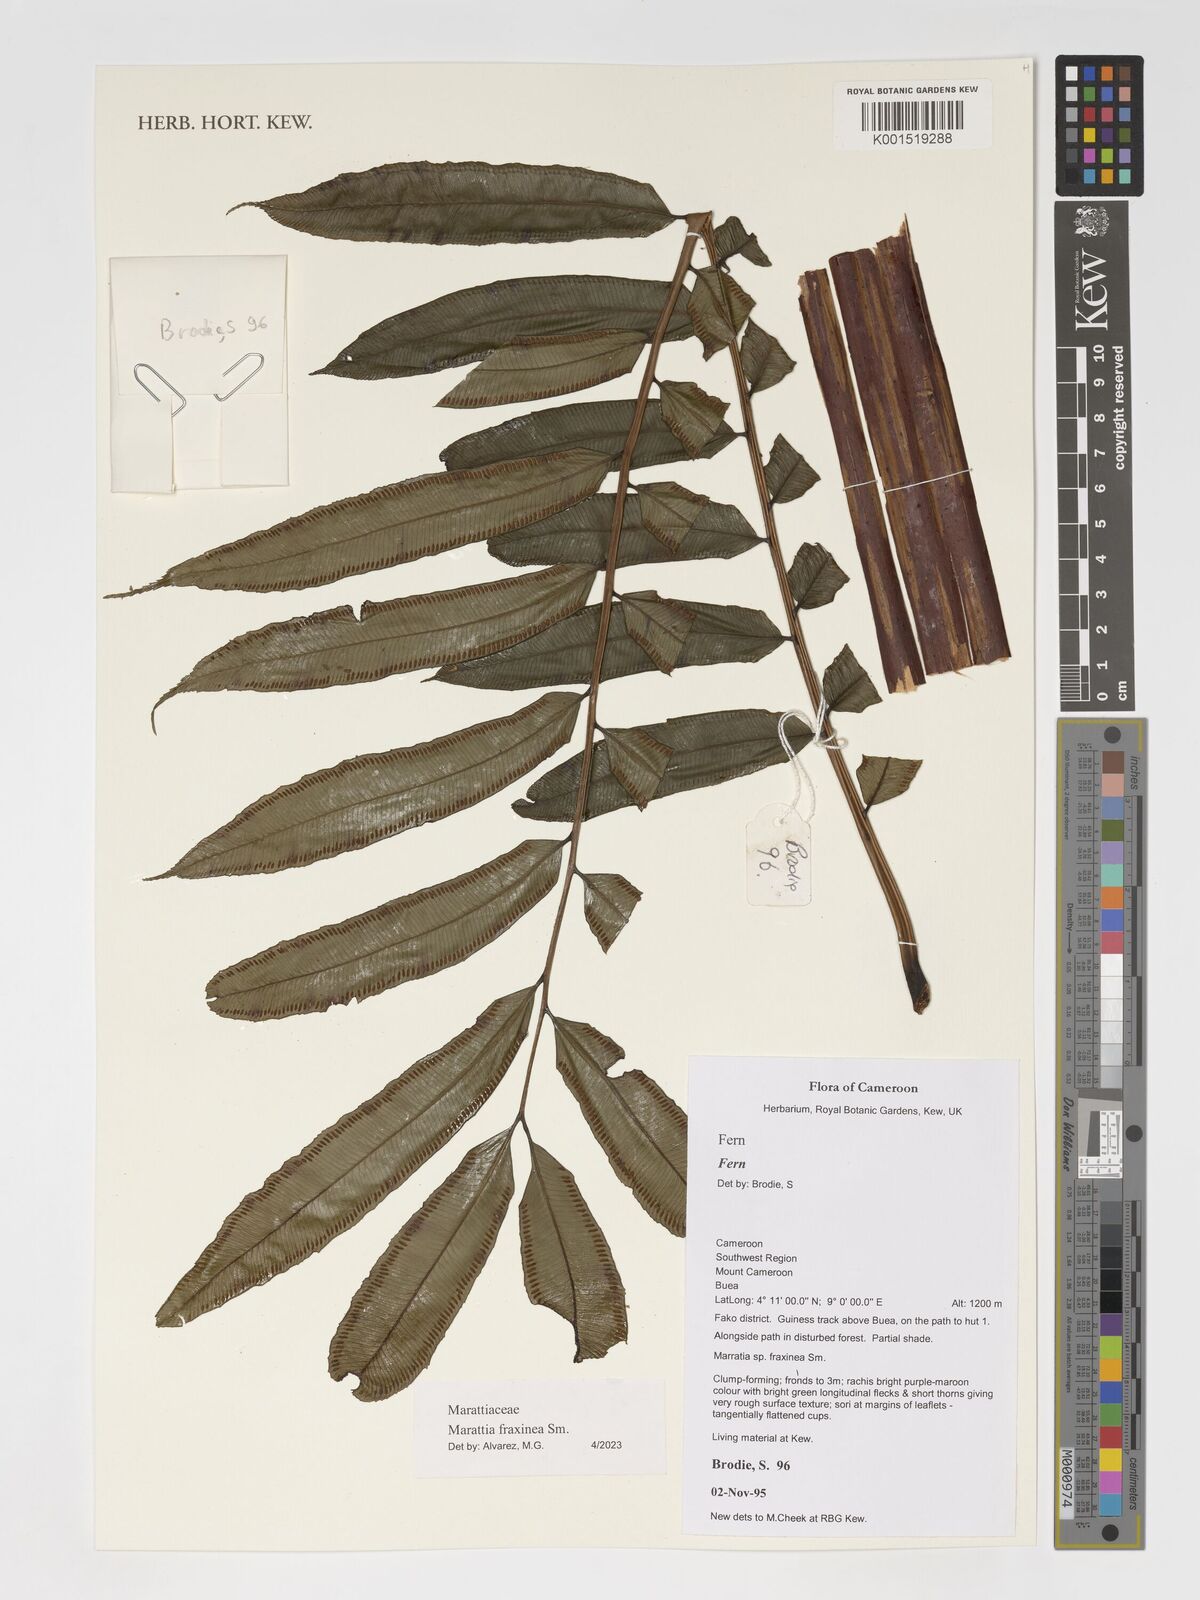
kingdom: Plantae
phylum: Tracheophyta
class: Polypodiopsida
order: Marattiales
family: Marattiaceae
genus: Ptisana
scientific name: Ptisana fraxinea
